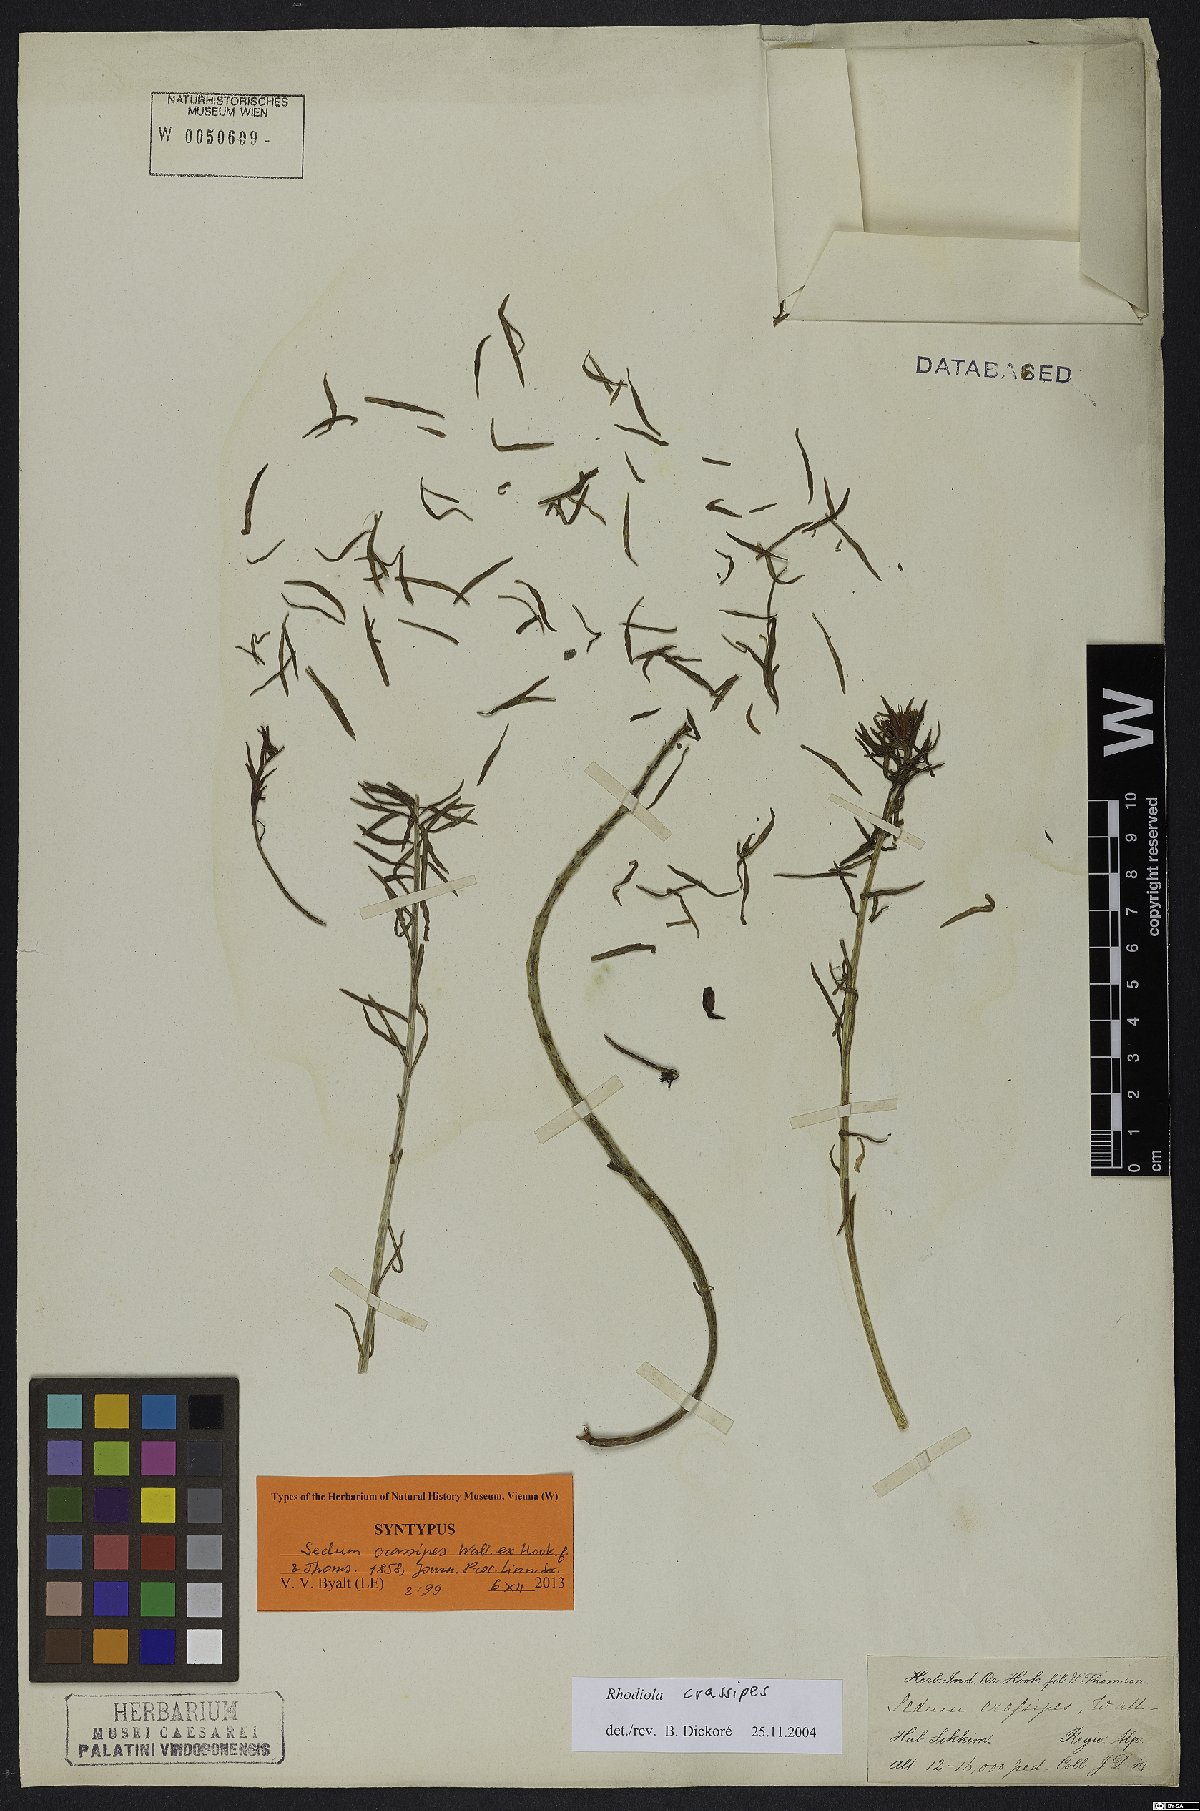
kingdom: Plantae
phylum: Tracheophyta
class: Magnoliopsida
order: Saxifragales
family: Crassulaceae
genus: Rhodiola
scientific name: Rhodiola wallichiana
